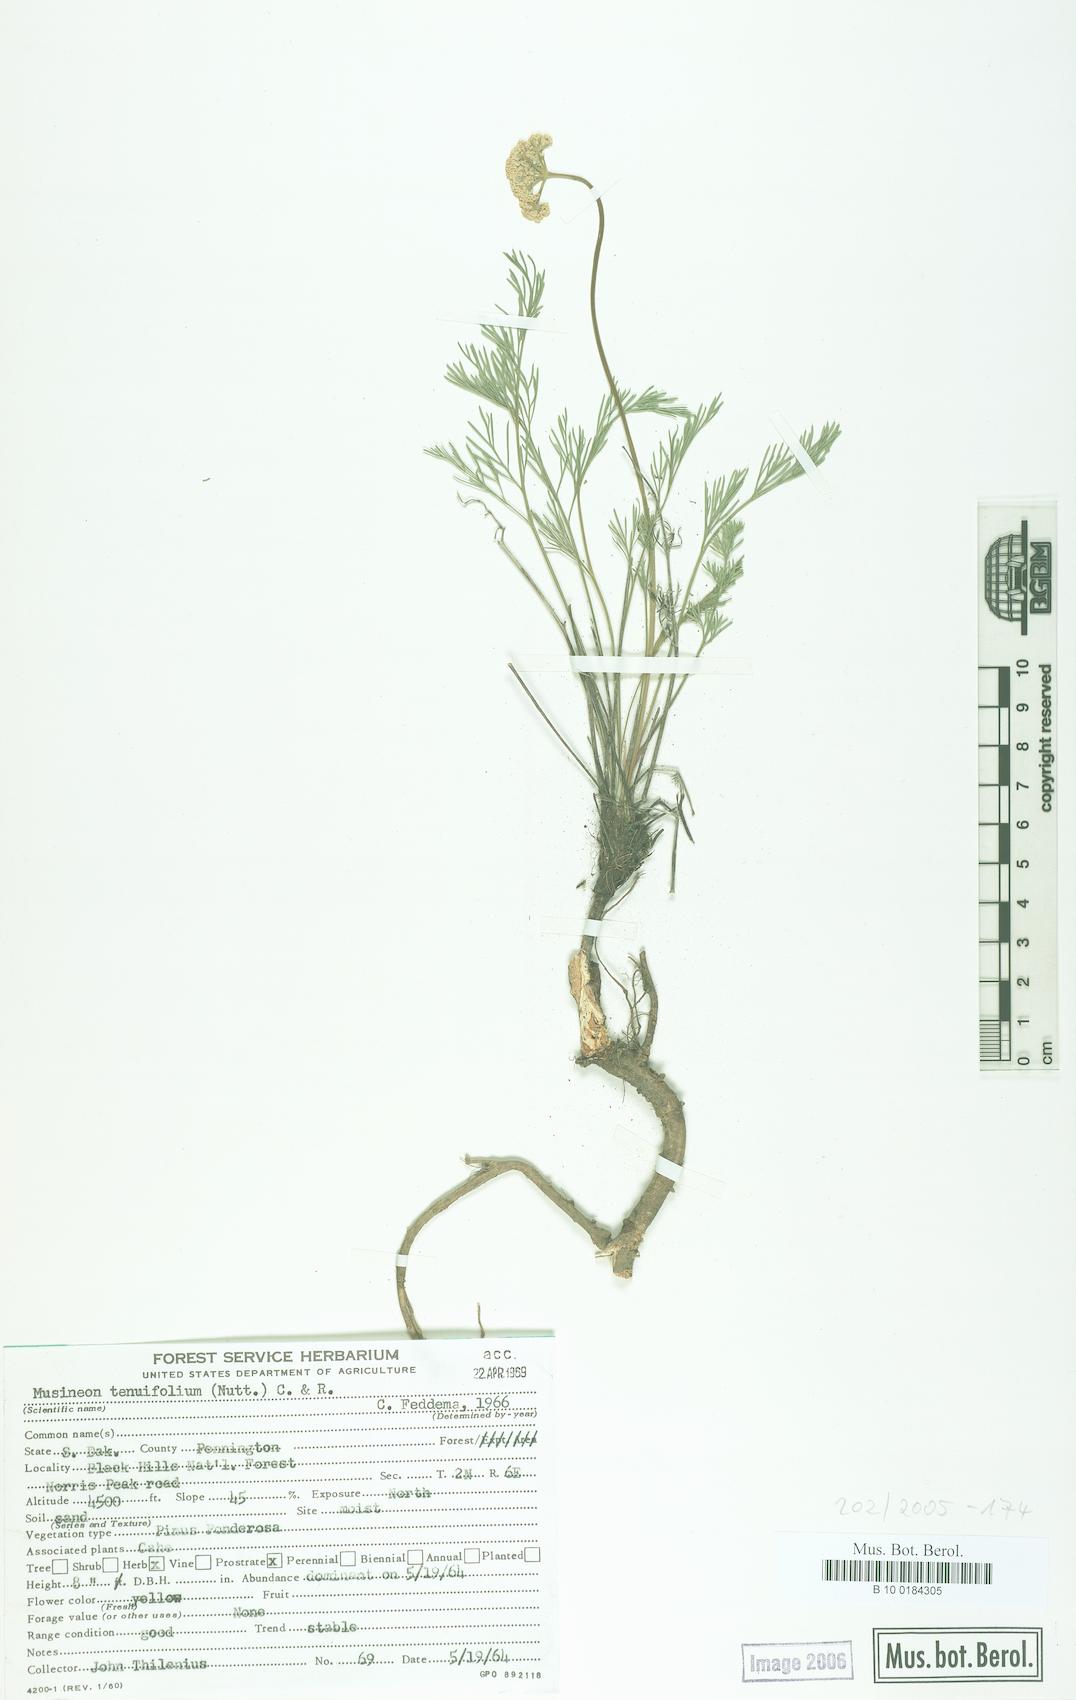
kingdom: Plantae
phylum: Tracheophyta
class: Magnoliopsida
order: Apiales
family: Apiaceae
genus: Musineon
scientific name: Musineon tenuifolium
